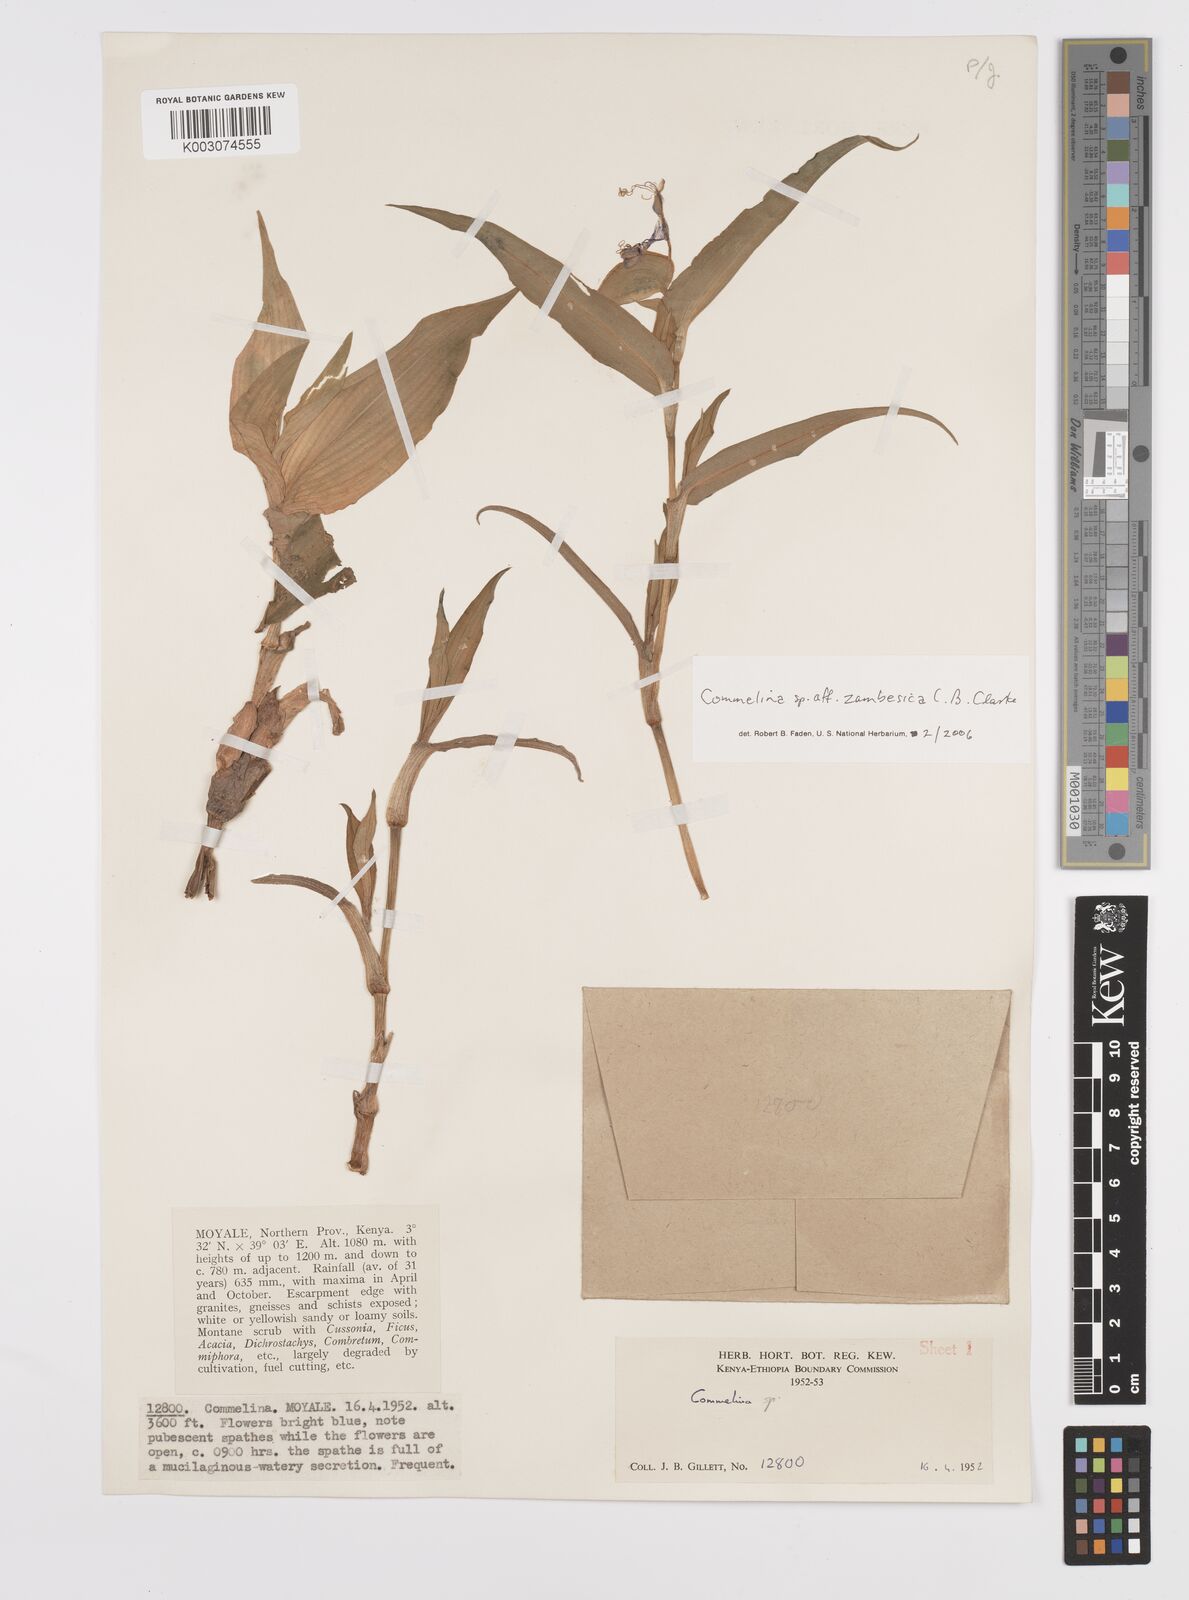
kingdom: Plantae
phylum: Tracheophyta
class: Liliopsida
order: Commelinales
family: Commelinaceae
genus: Commelina
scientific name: Commelina zambesica
